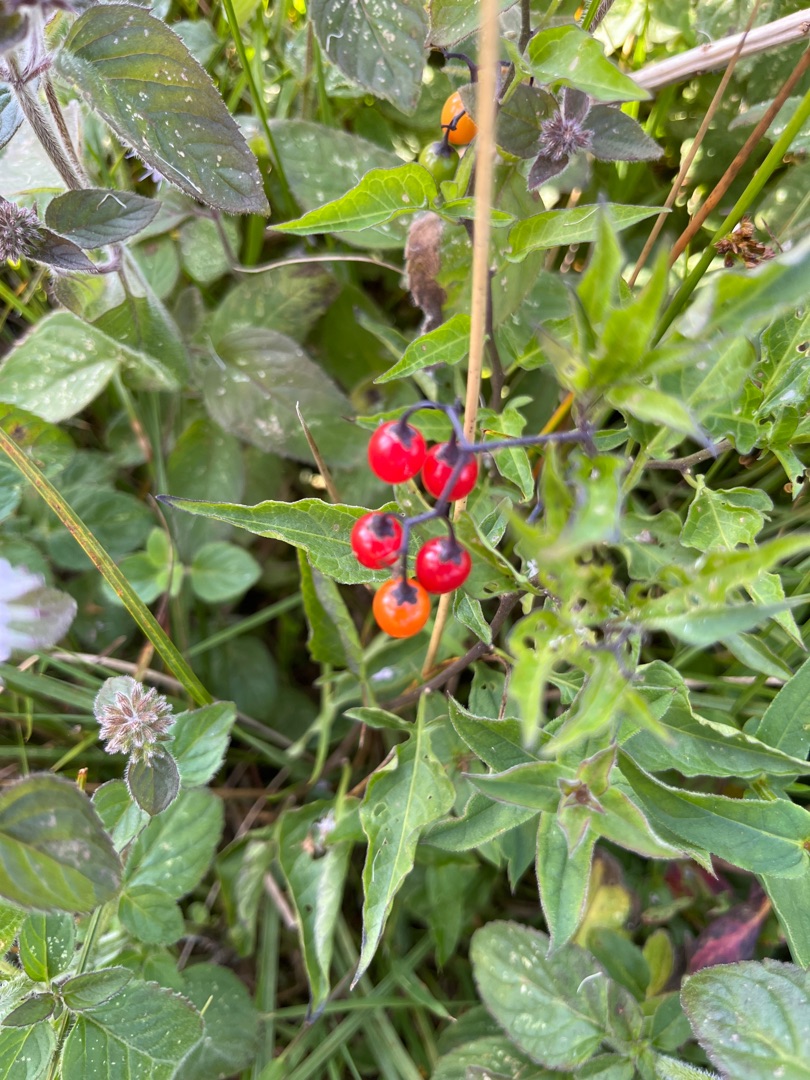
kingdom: Plantae
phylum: Tracheophyta
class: Magnoliopsida
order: Solanales
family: Solanaceae
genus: Solanum
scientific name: Solanum dulcamara
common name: Bittersød natskygge
